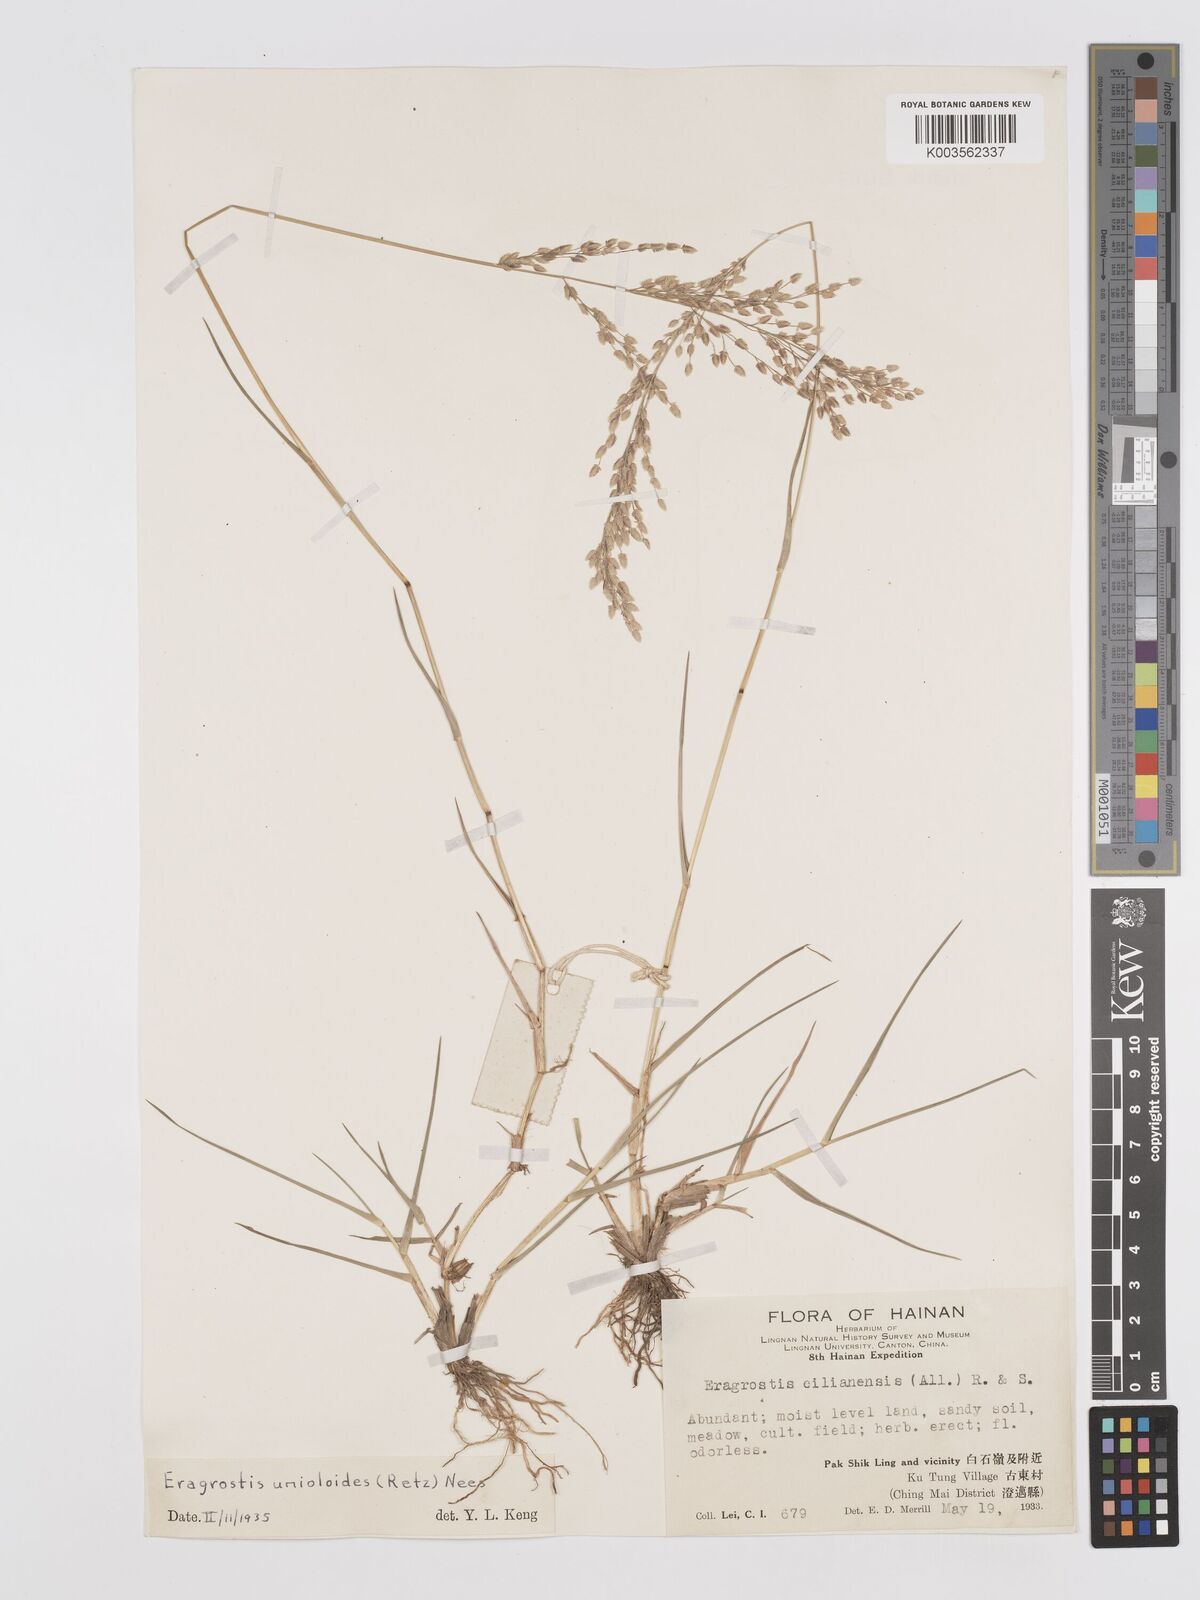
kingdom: Plantae
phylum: Tracheophyta
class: Liliopsida
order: Poales
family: Poaceae
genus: Eragrostis
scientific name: Eragrostis unioloides
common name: Chinese lovegrass
